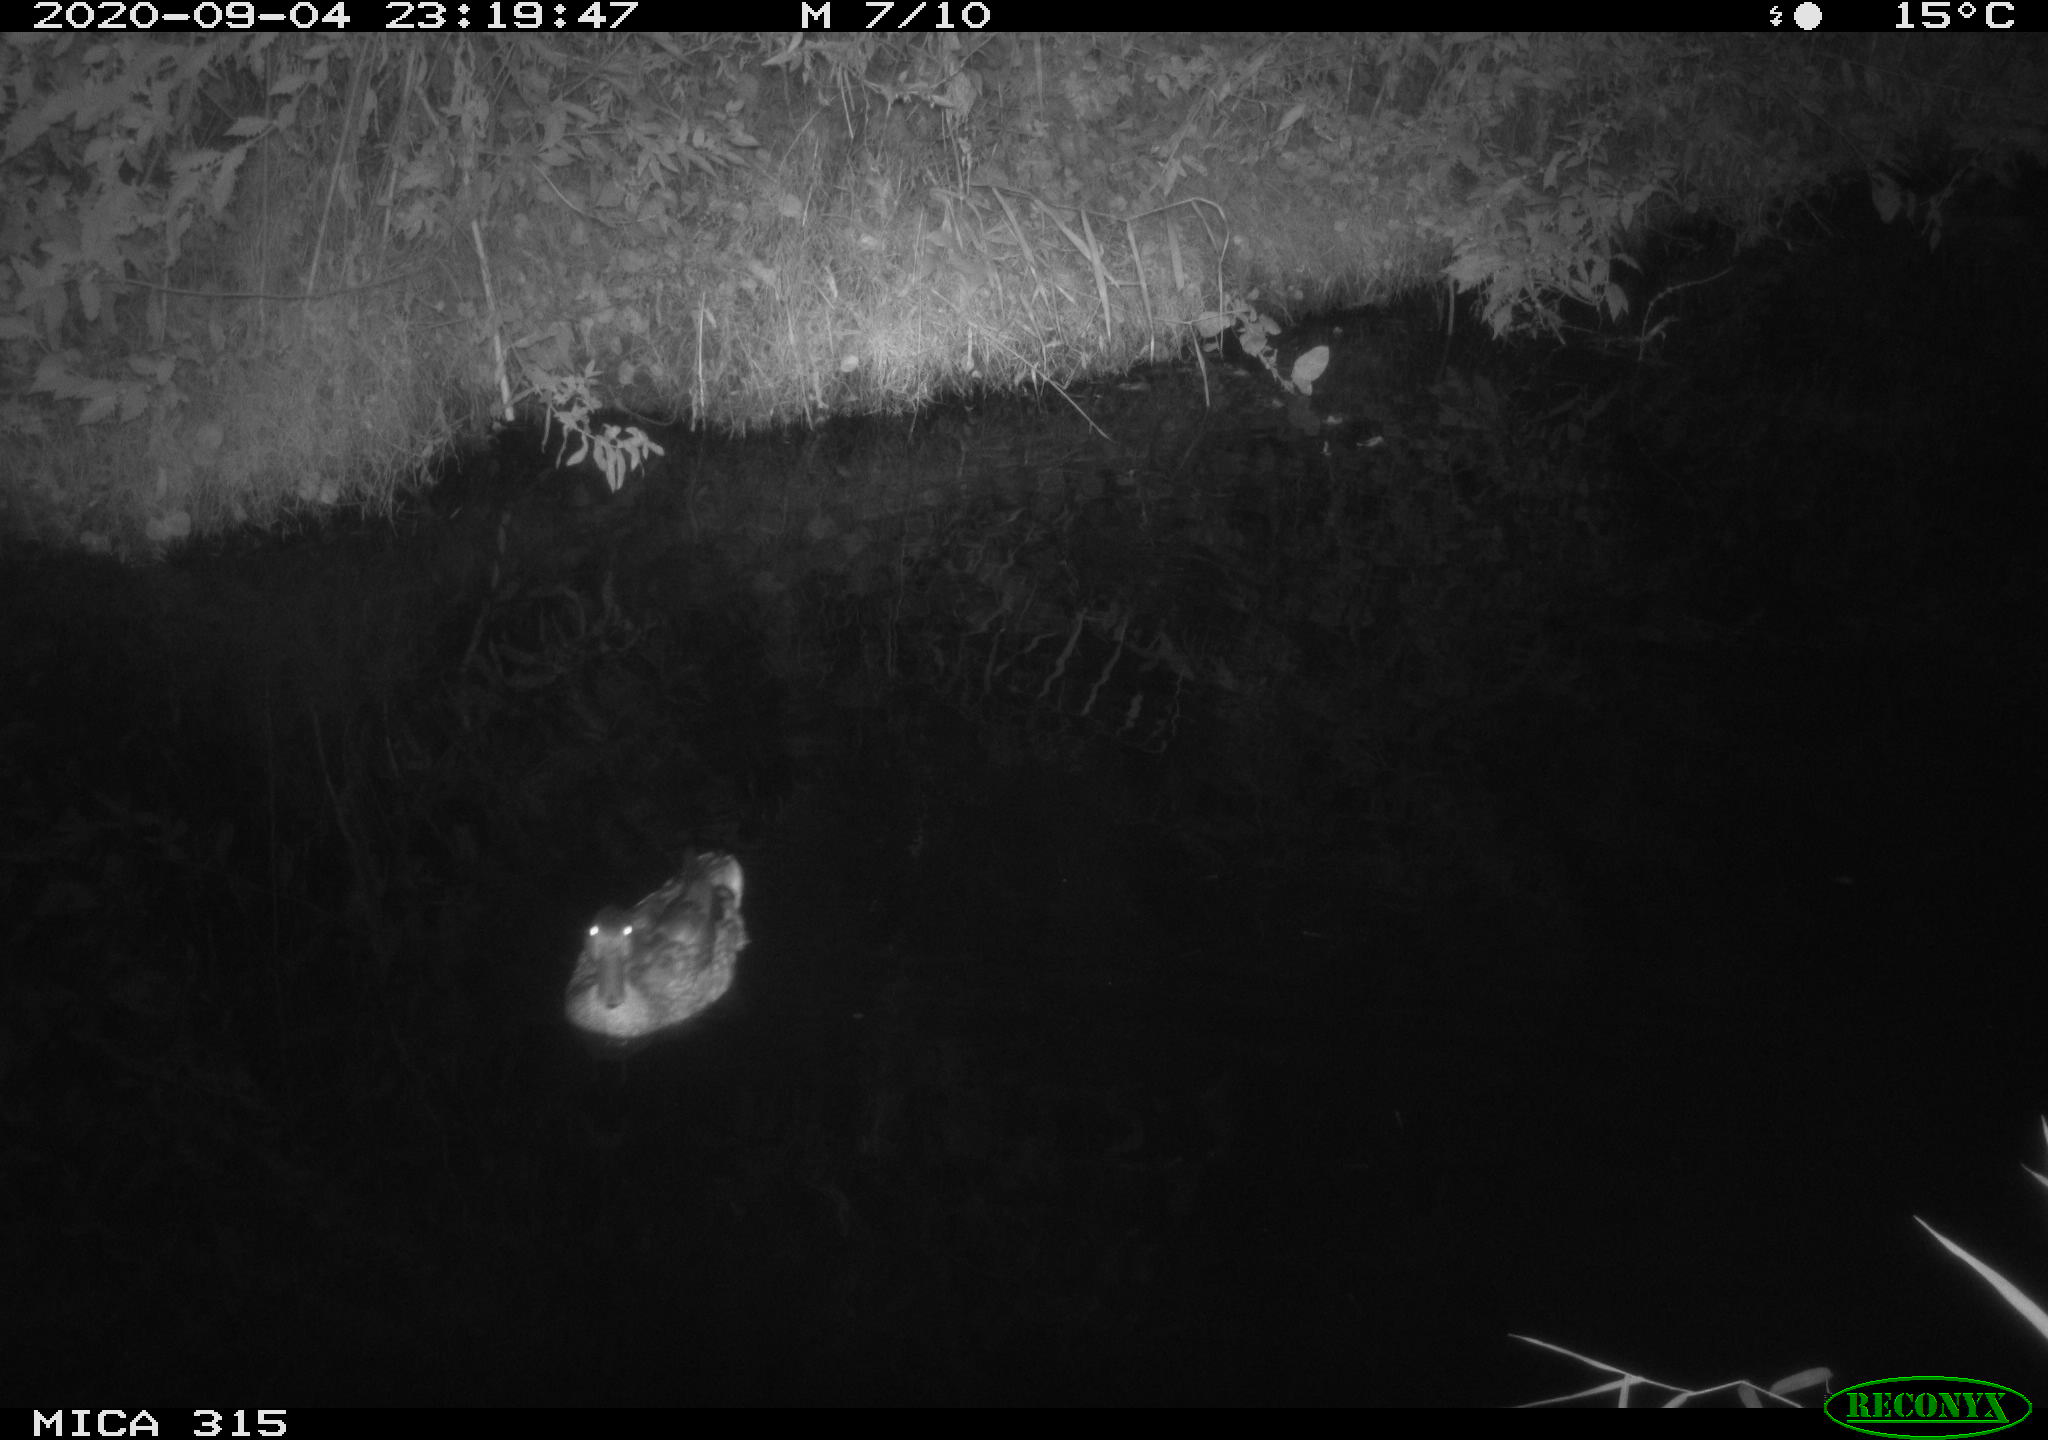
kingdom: Animalia
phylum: Chordata
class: Aves
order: Anseriformes
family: Anatidae
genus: Anas
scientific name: Anas platyrhynchos
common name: Mallard
